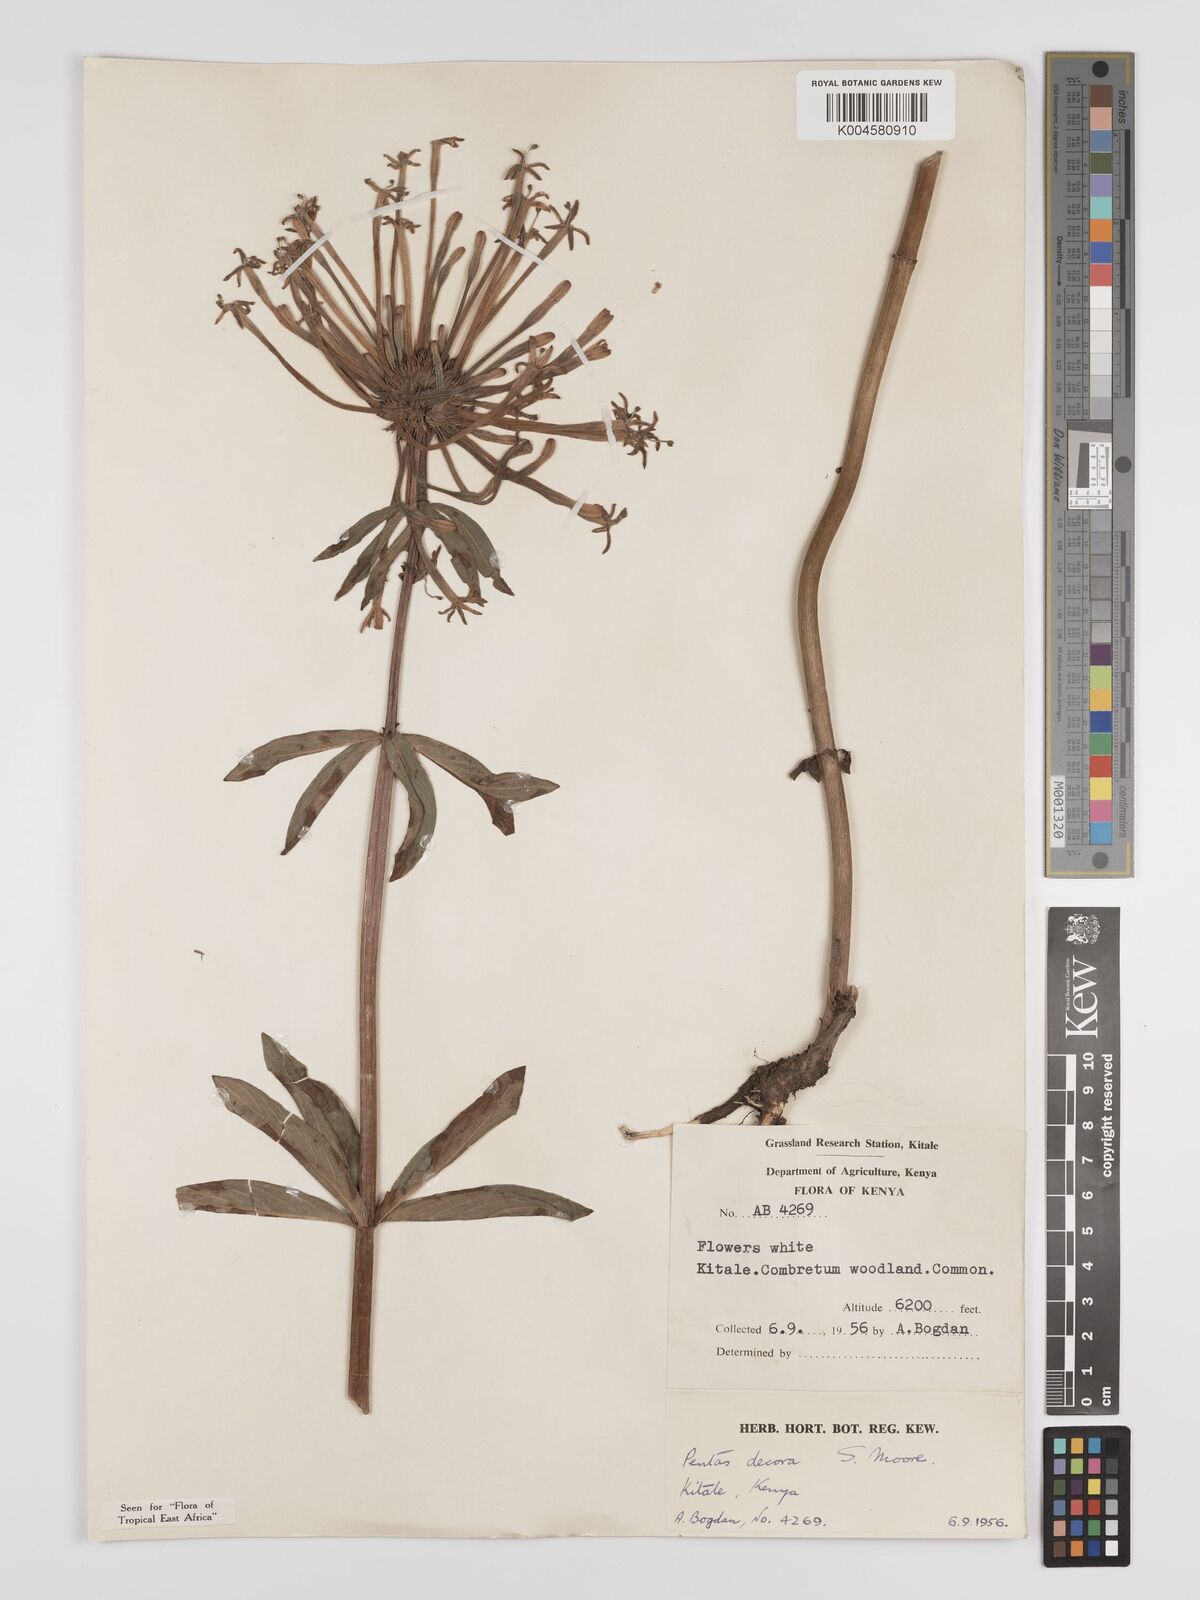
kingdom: Plantae
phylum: Tracheophyta
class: Magnoliopsida
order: Gentianales
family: Rubiaceae
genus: Dolichopentas
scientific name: Dolichopentas decora
